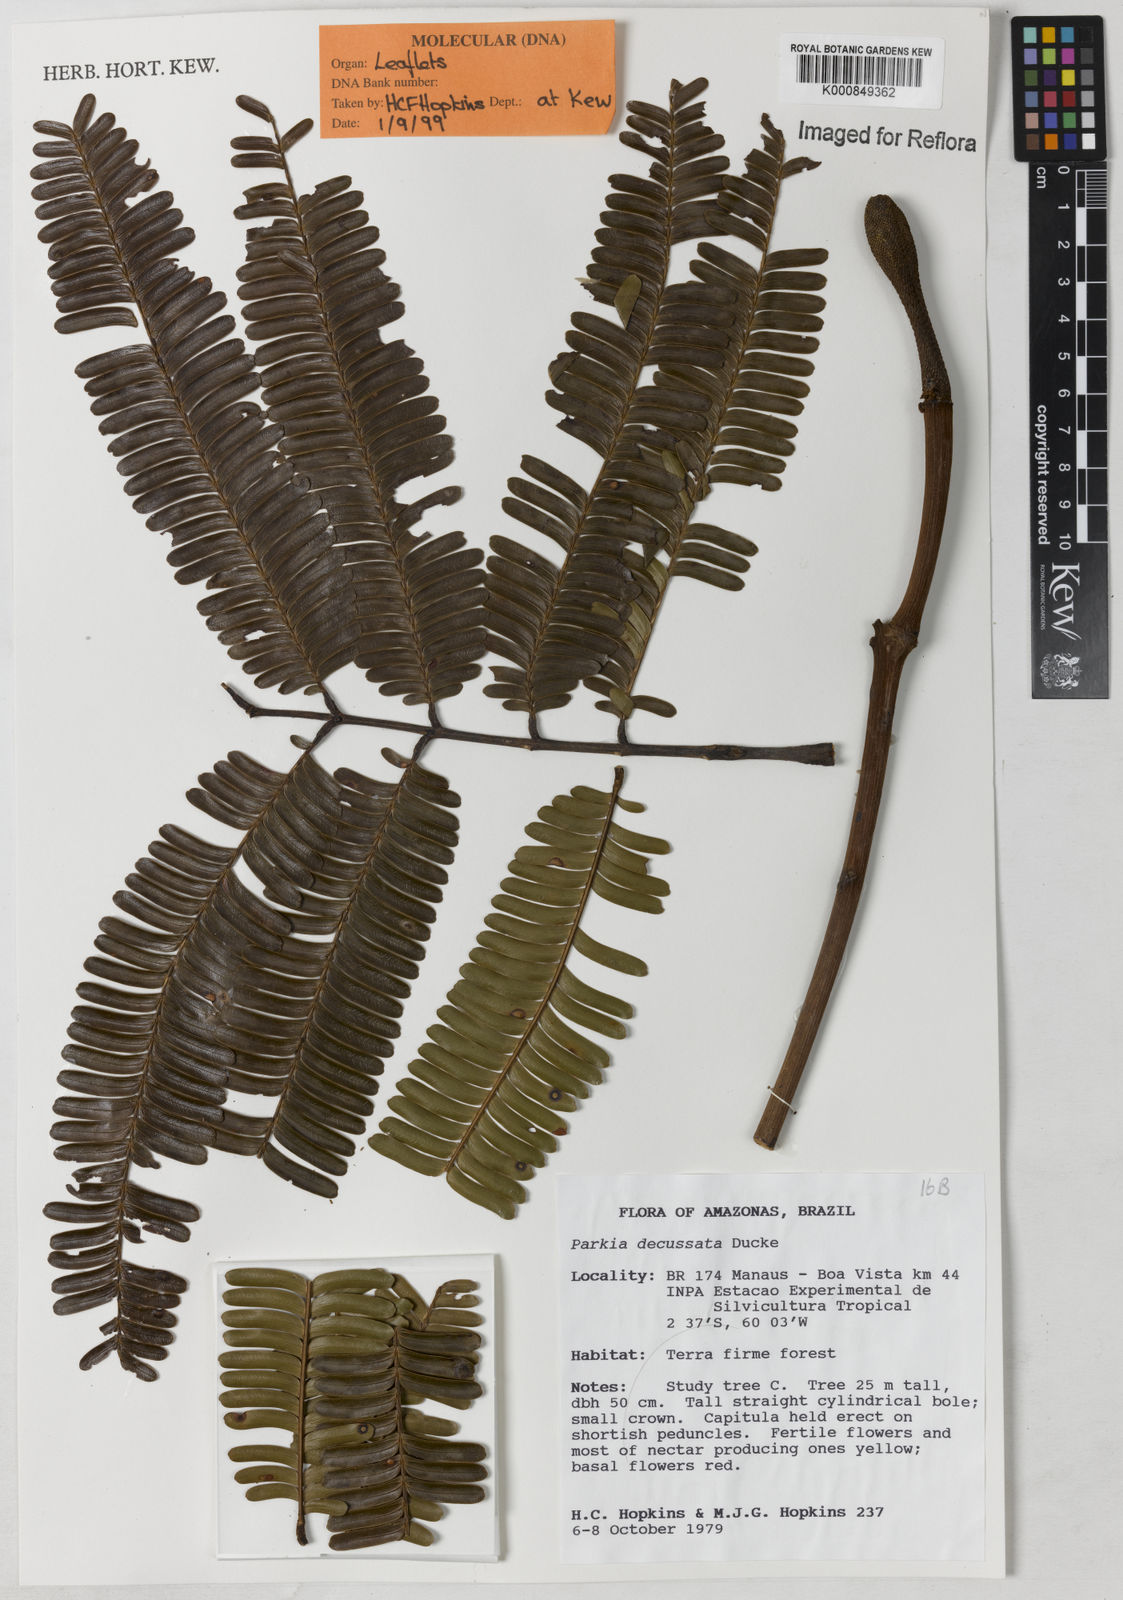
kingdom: Plantae
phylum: Tracheophyta
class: Magnoliopsida
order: Fabales
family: Fabaceae
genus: Parkia
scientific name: Parkia decussata
